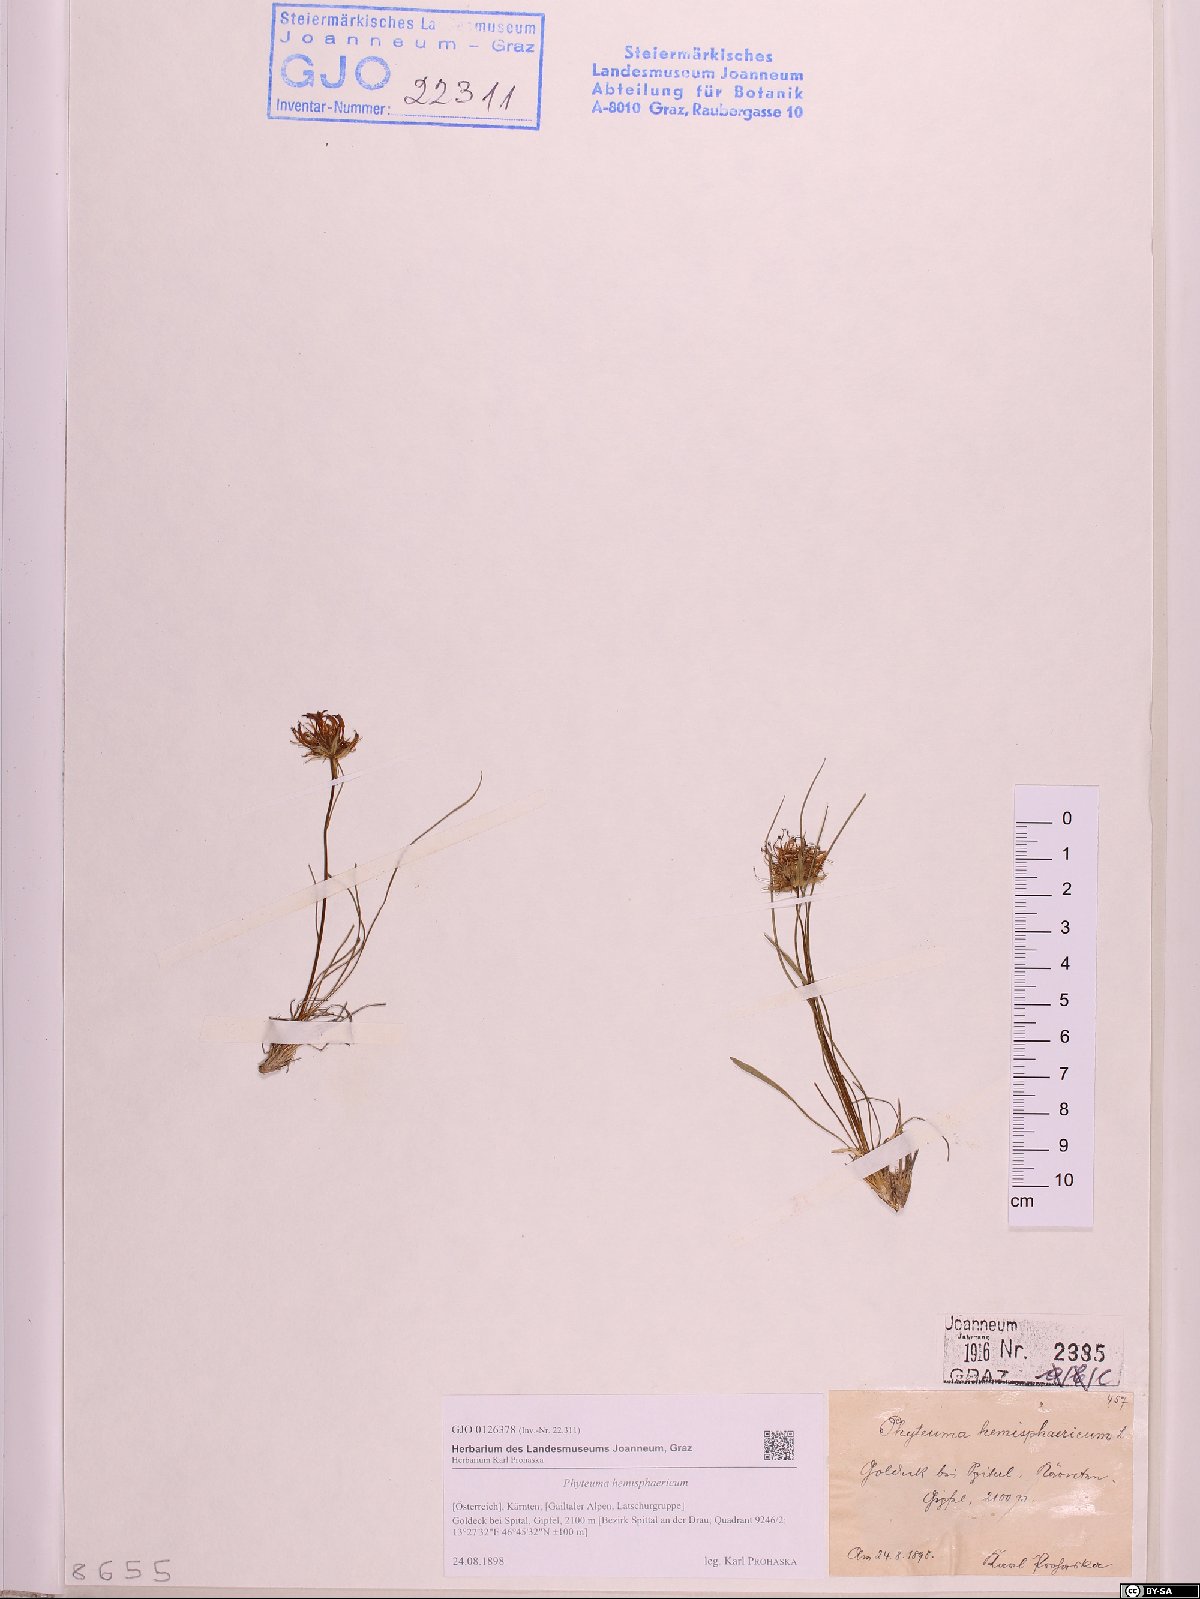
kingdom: Plantae
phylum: Tracheophyta
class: Magnoliopsida
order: Asterales
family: Campanulaceae
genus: Phyteuma
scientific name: Phyteuma hemisphaericum
